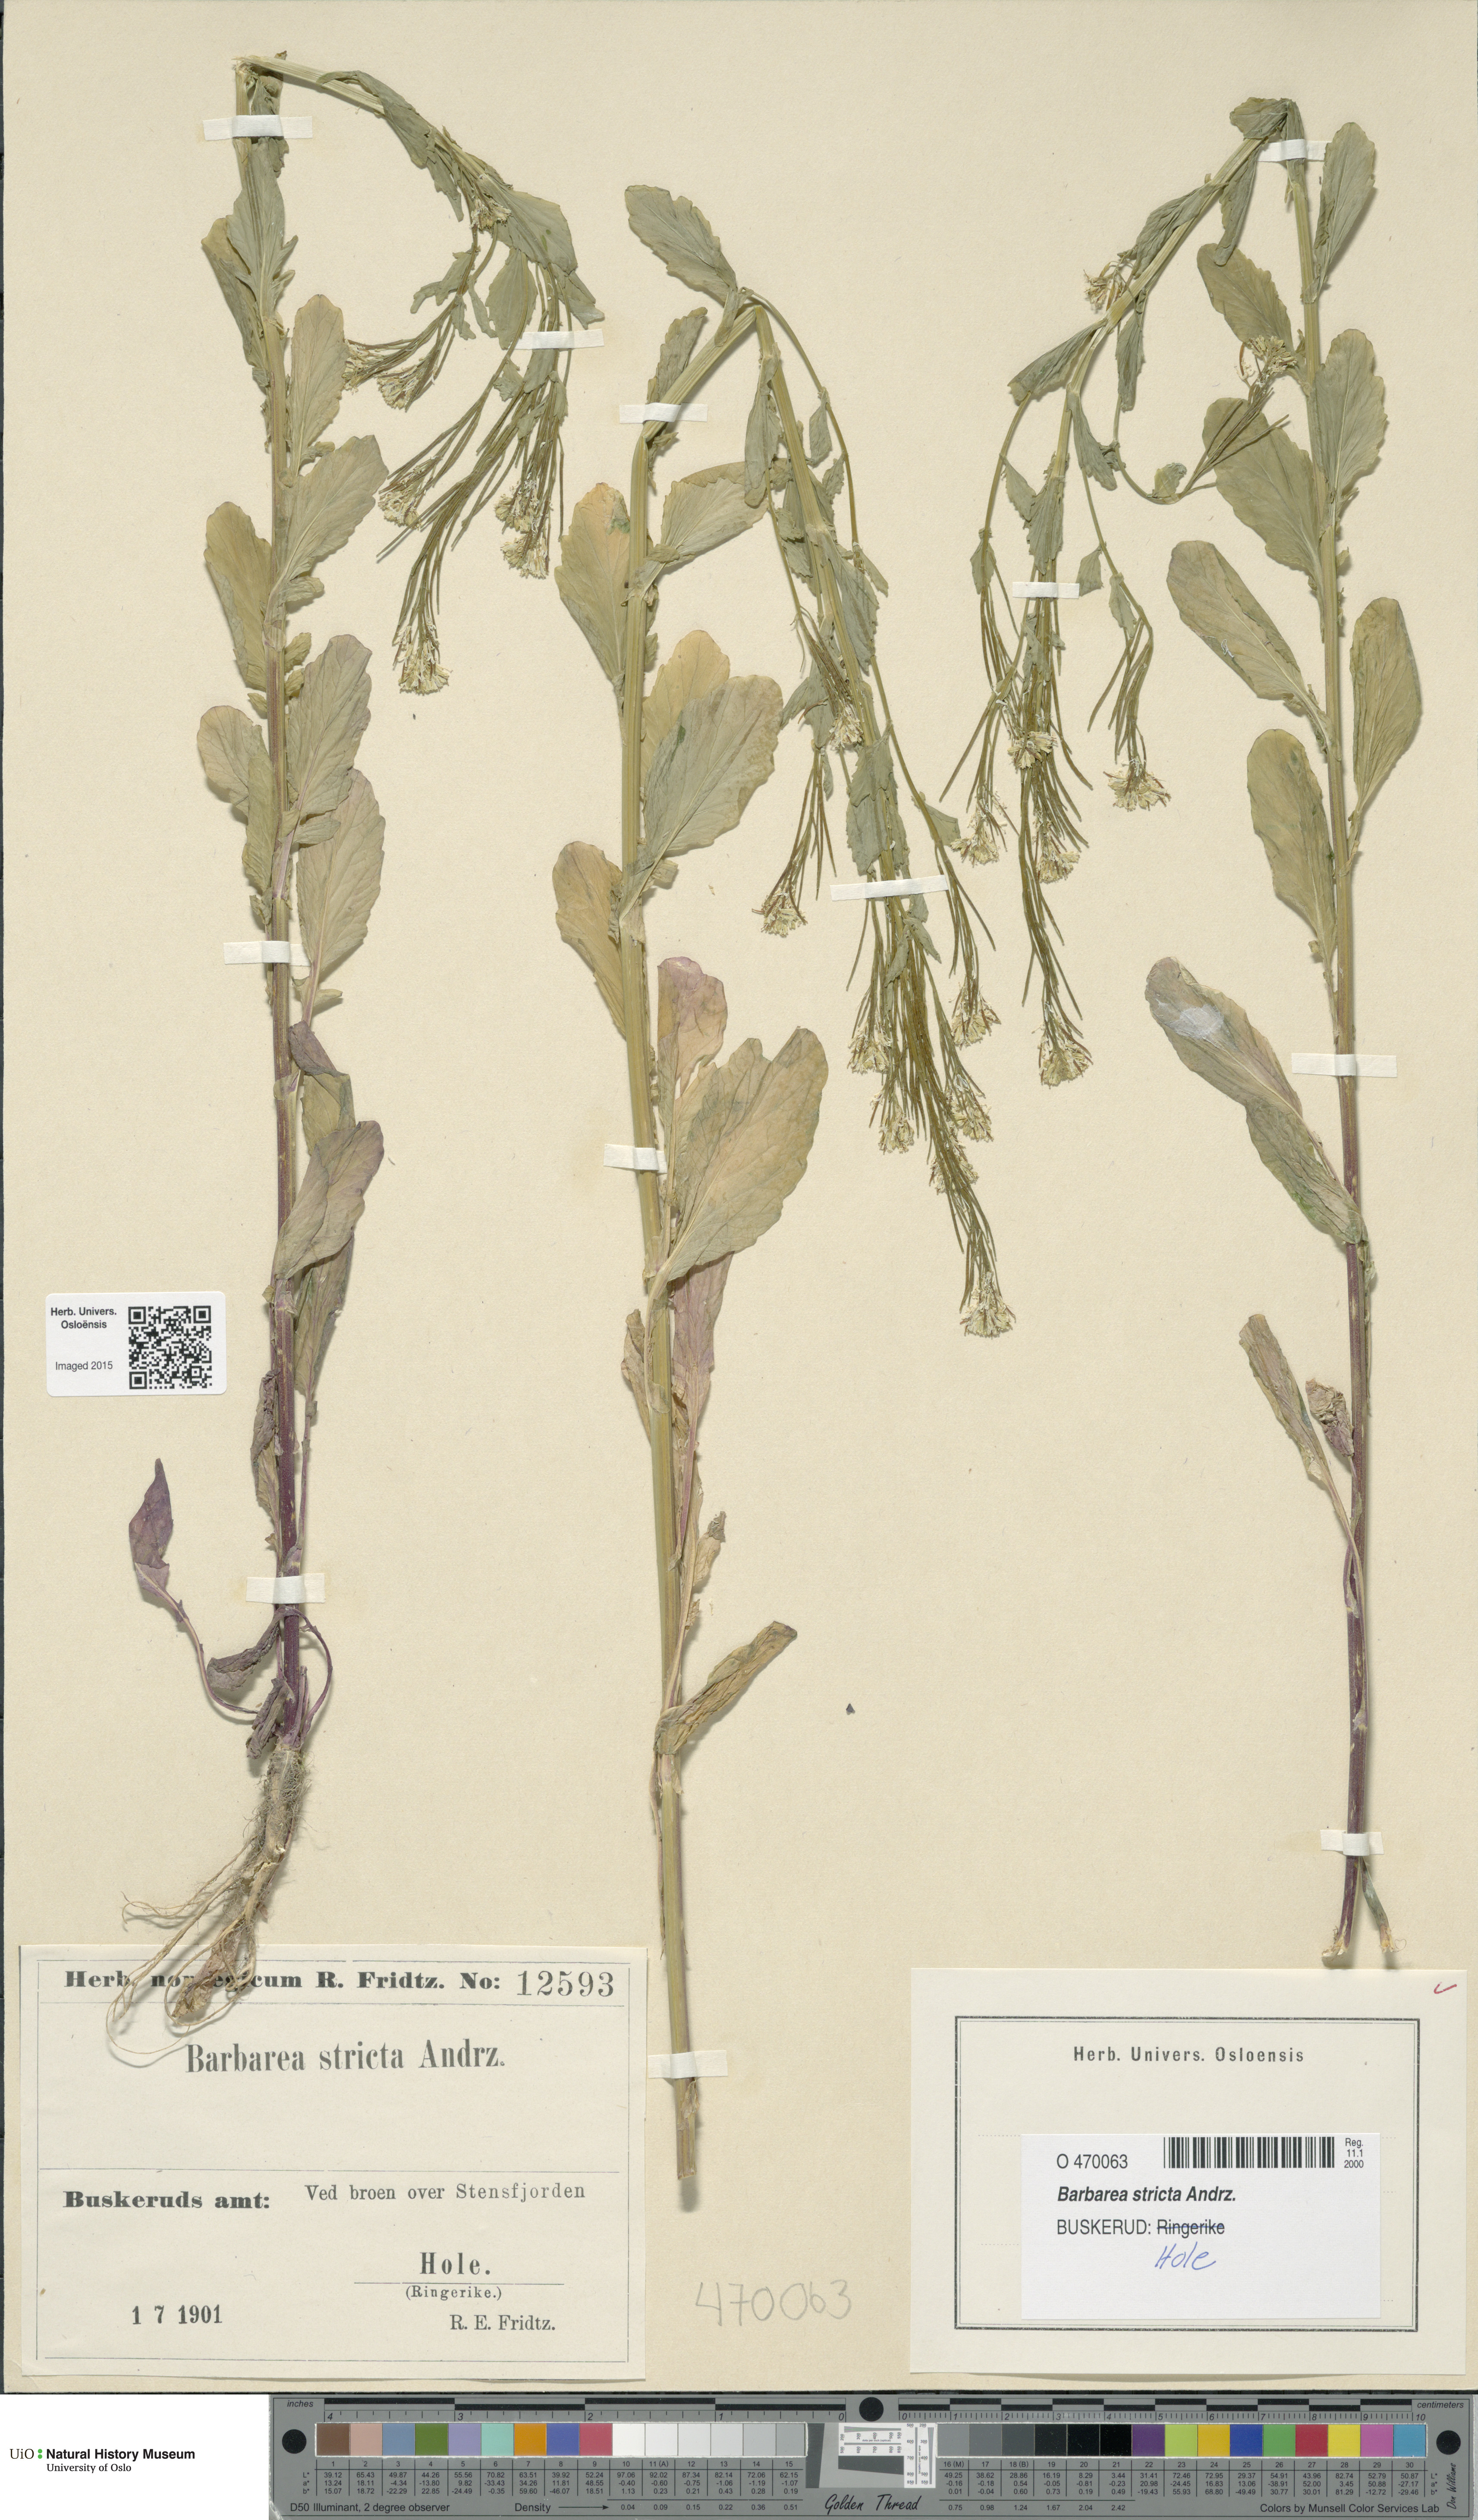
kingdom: Plantae
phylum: Tracheophyta
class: Magnoliopsida
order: Brassicales
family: Brassicaceae
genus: Barbarea
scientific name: Barbarea stricta
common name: Small-flowered winter-cress
